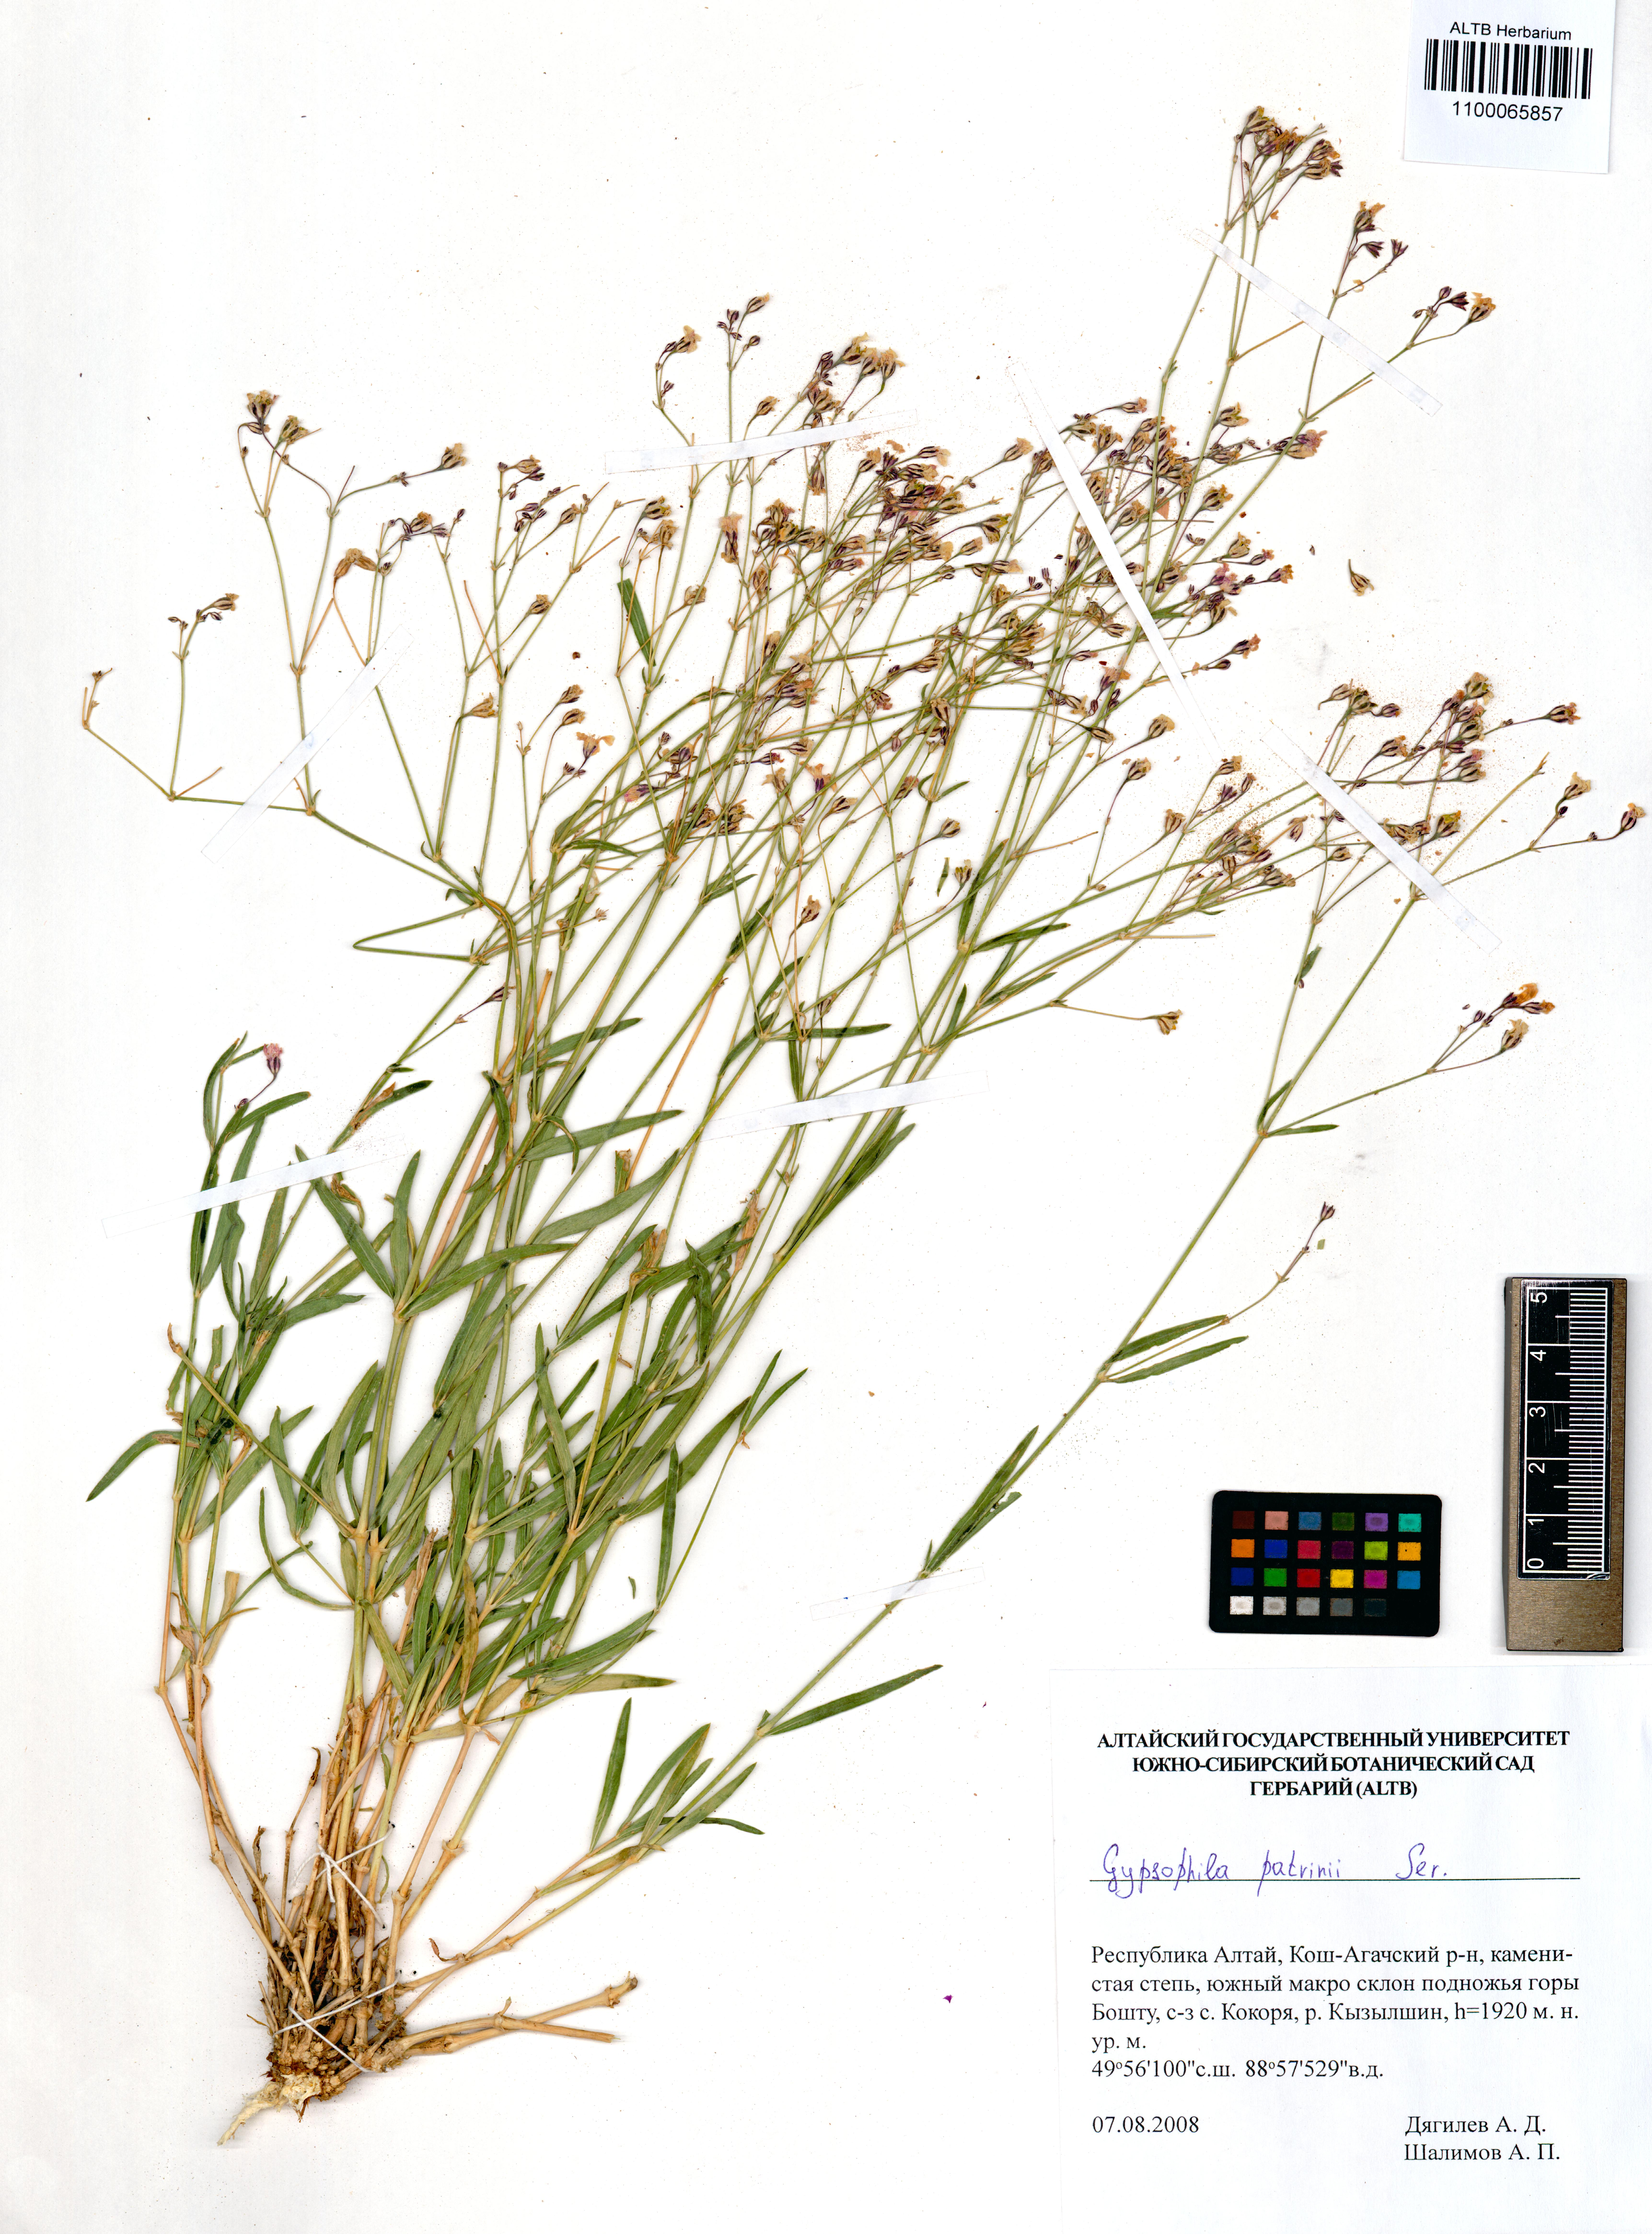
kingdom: Plantae
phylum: Tracheophyta
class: Magnoliopsida
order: Caryophyllales
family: Caryophyllaceae
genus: Gypsophila
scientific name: Gypsophila patrinii
